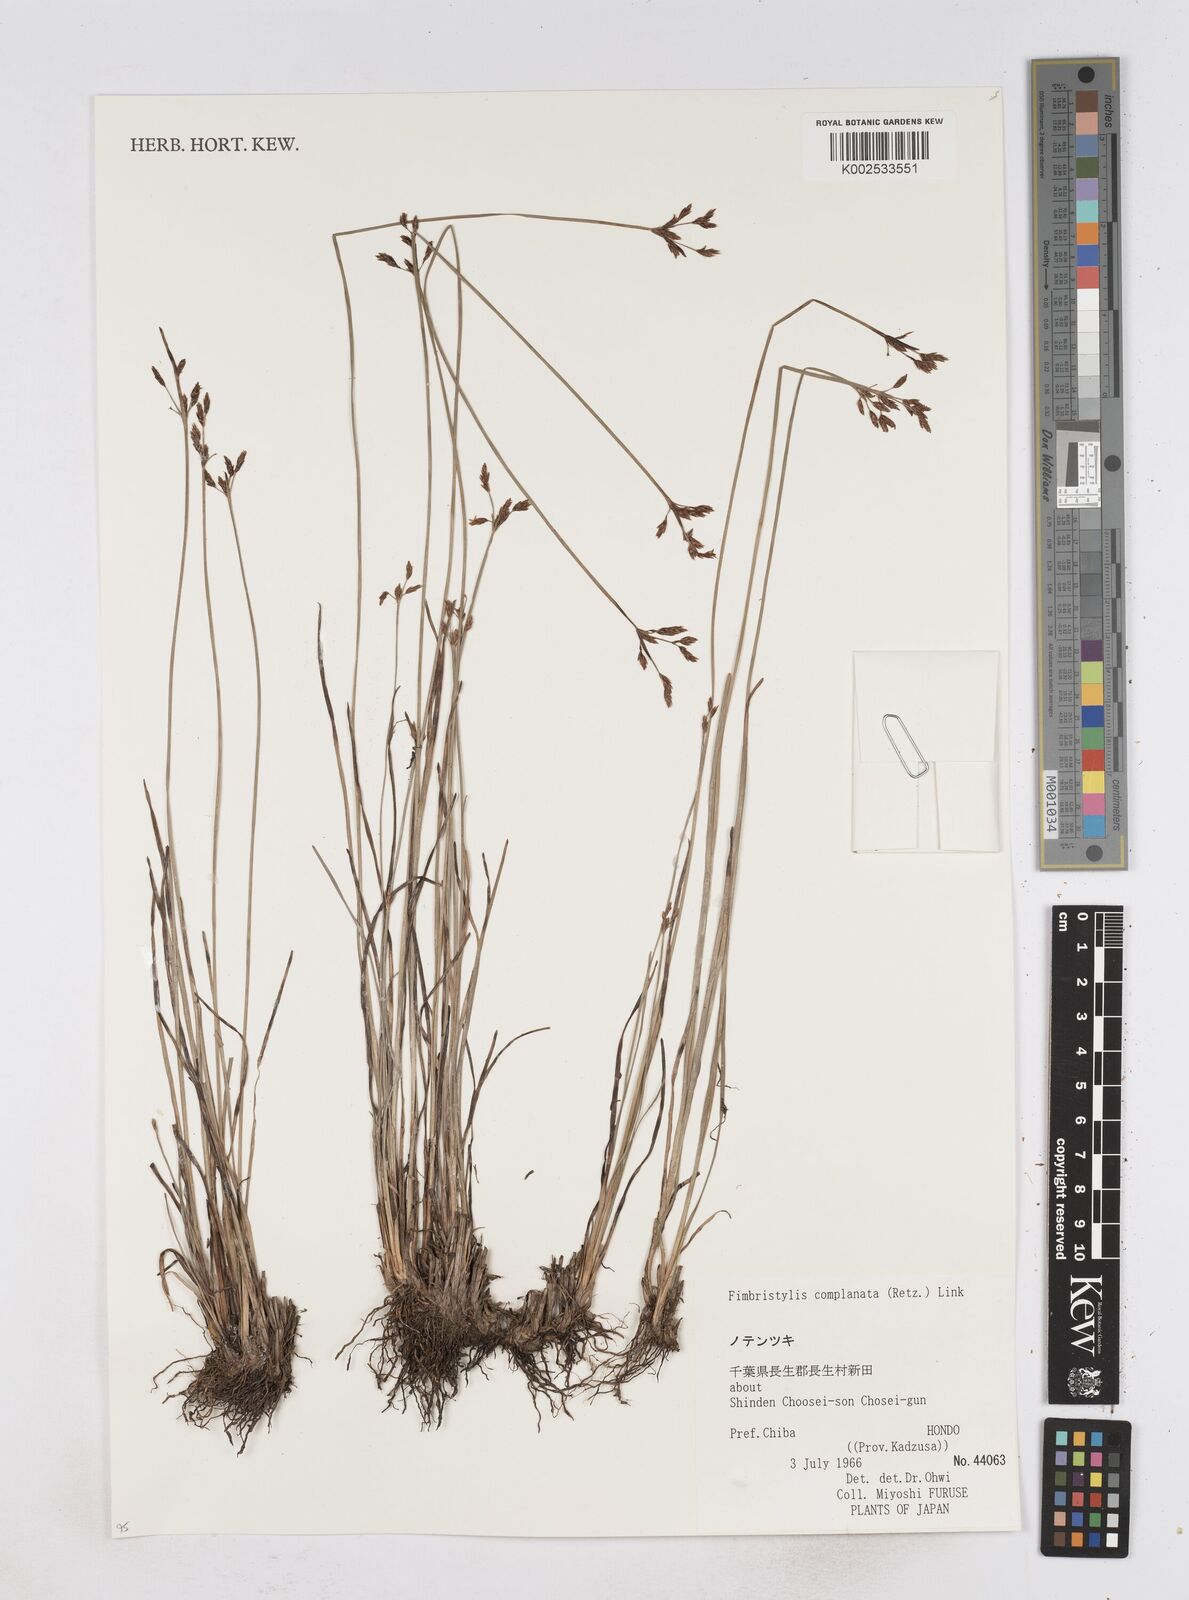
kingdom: Plantae
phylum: Tracheophyta
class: Liliopsida
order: Poales
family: Cyperaceae
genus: Fimbristylis
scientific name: Fimbristylis complanata
